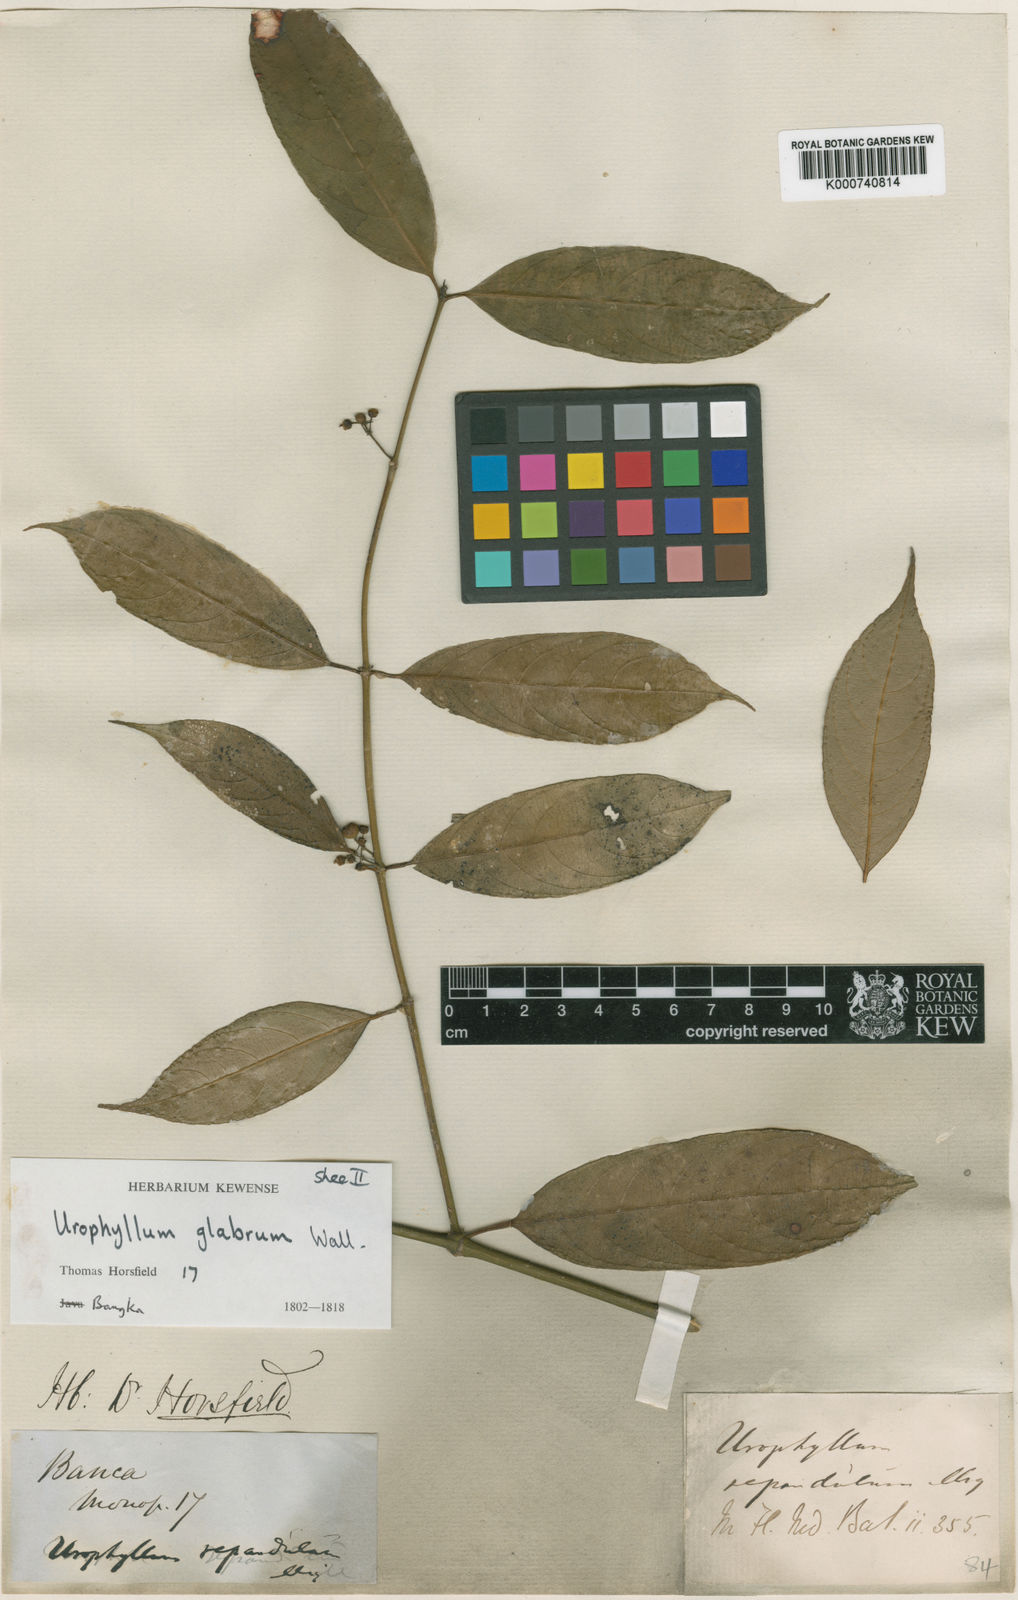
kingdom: Plantae
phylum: Tracheophyta
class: Magnoliopsida
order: Gentianales
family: Rubiaceae
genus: Urophyllum
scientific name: Urophyllum arboreum
